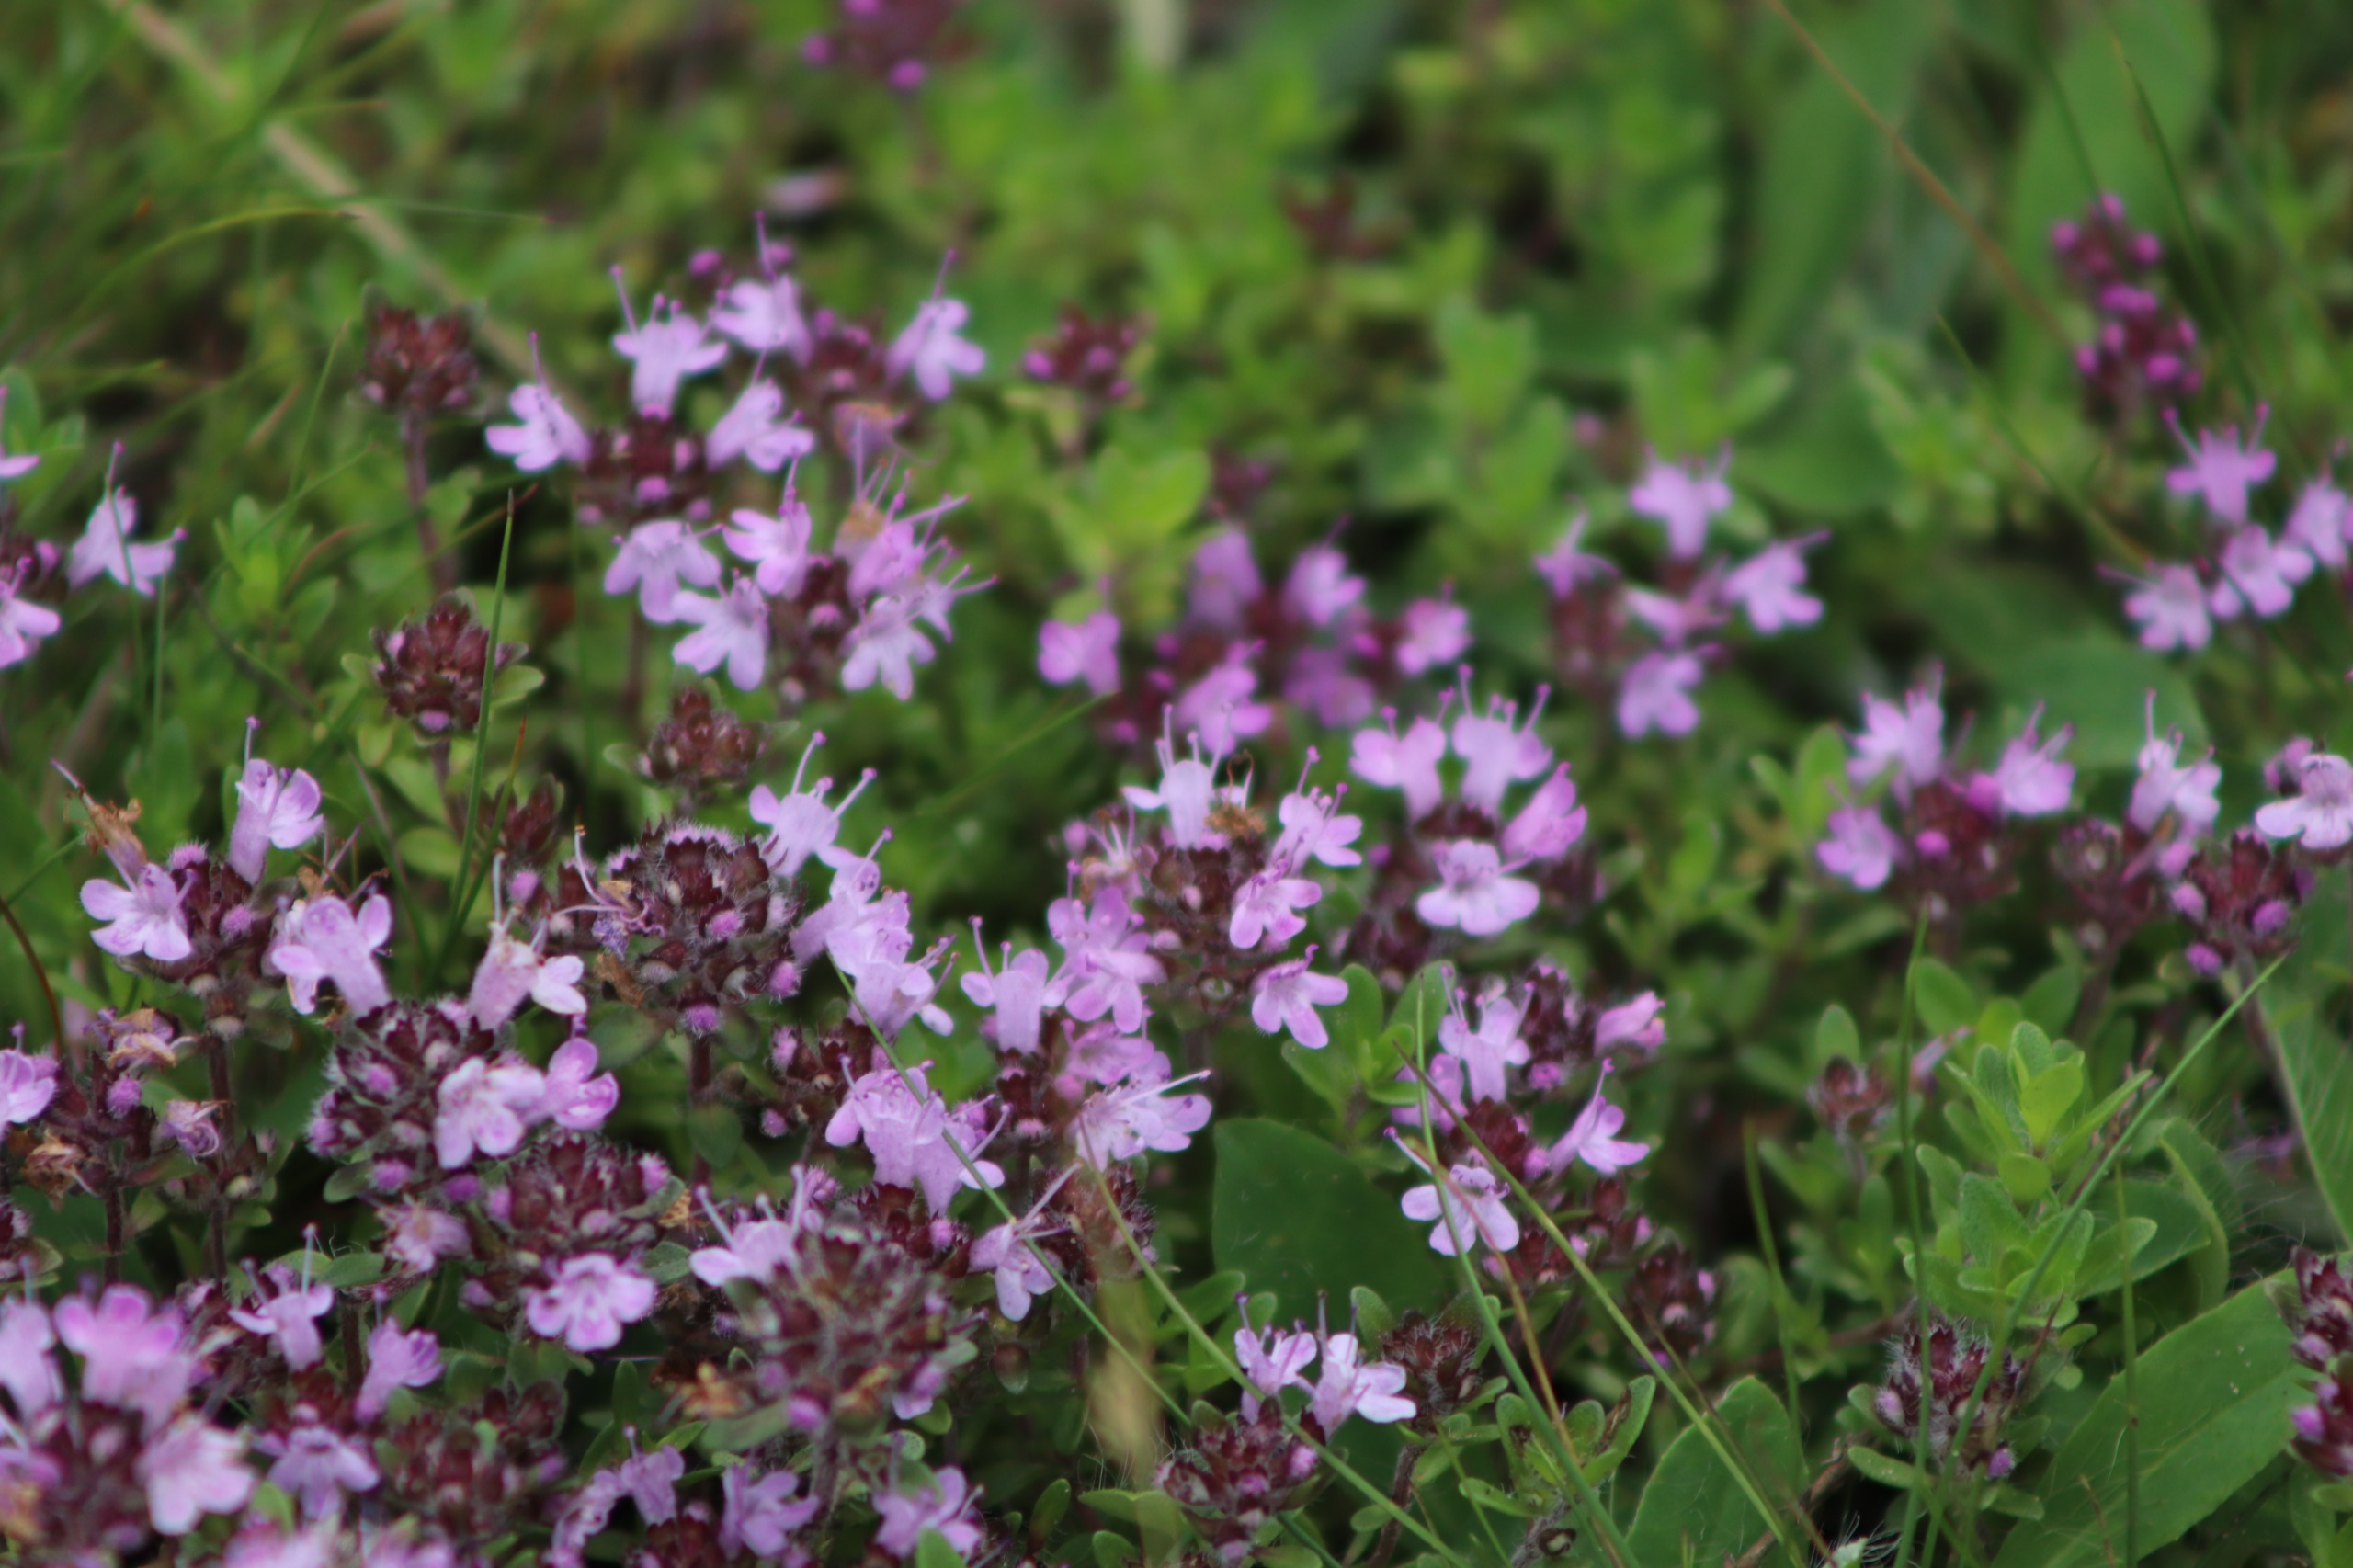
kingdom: Plantae
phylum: Tracheophyta
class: Magnoliopsida
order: Lamiales
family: Lamiaceae
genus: Thymus
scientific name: Thymus serpyllum
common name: Smalbladet timian
